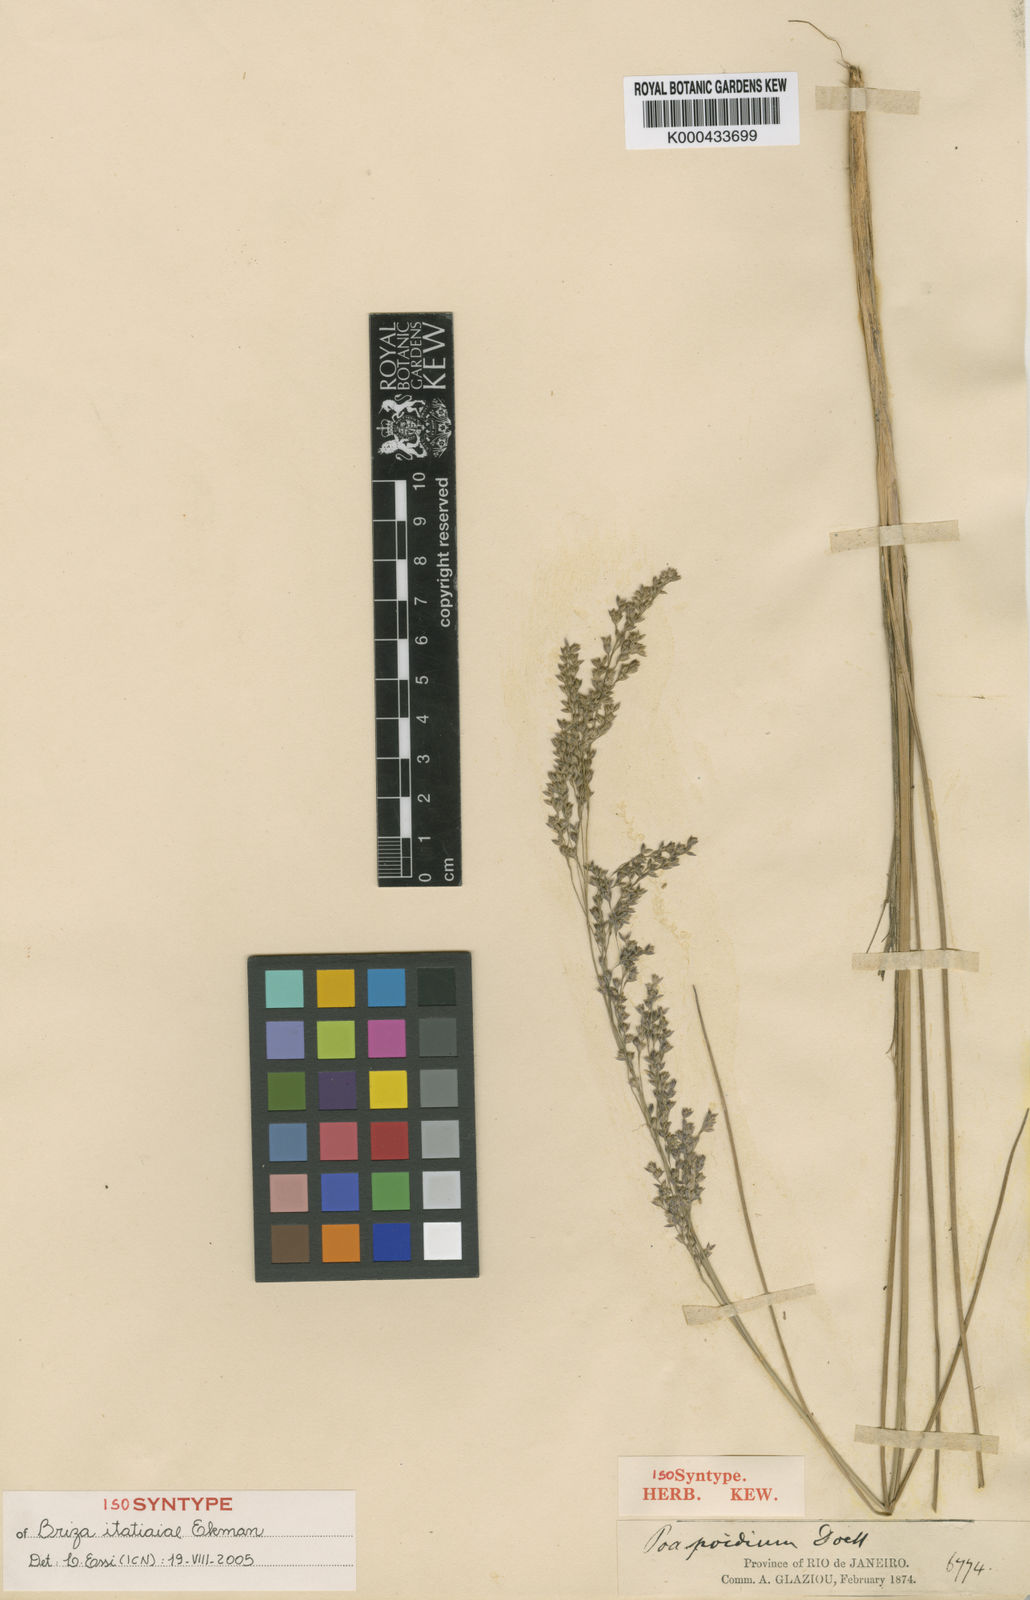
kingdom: Plantae
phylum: Tracheophyta
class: Liliopsida
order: Poales
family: Poaceae
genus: Poidium
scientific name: Poidium itatiaiae
